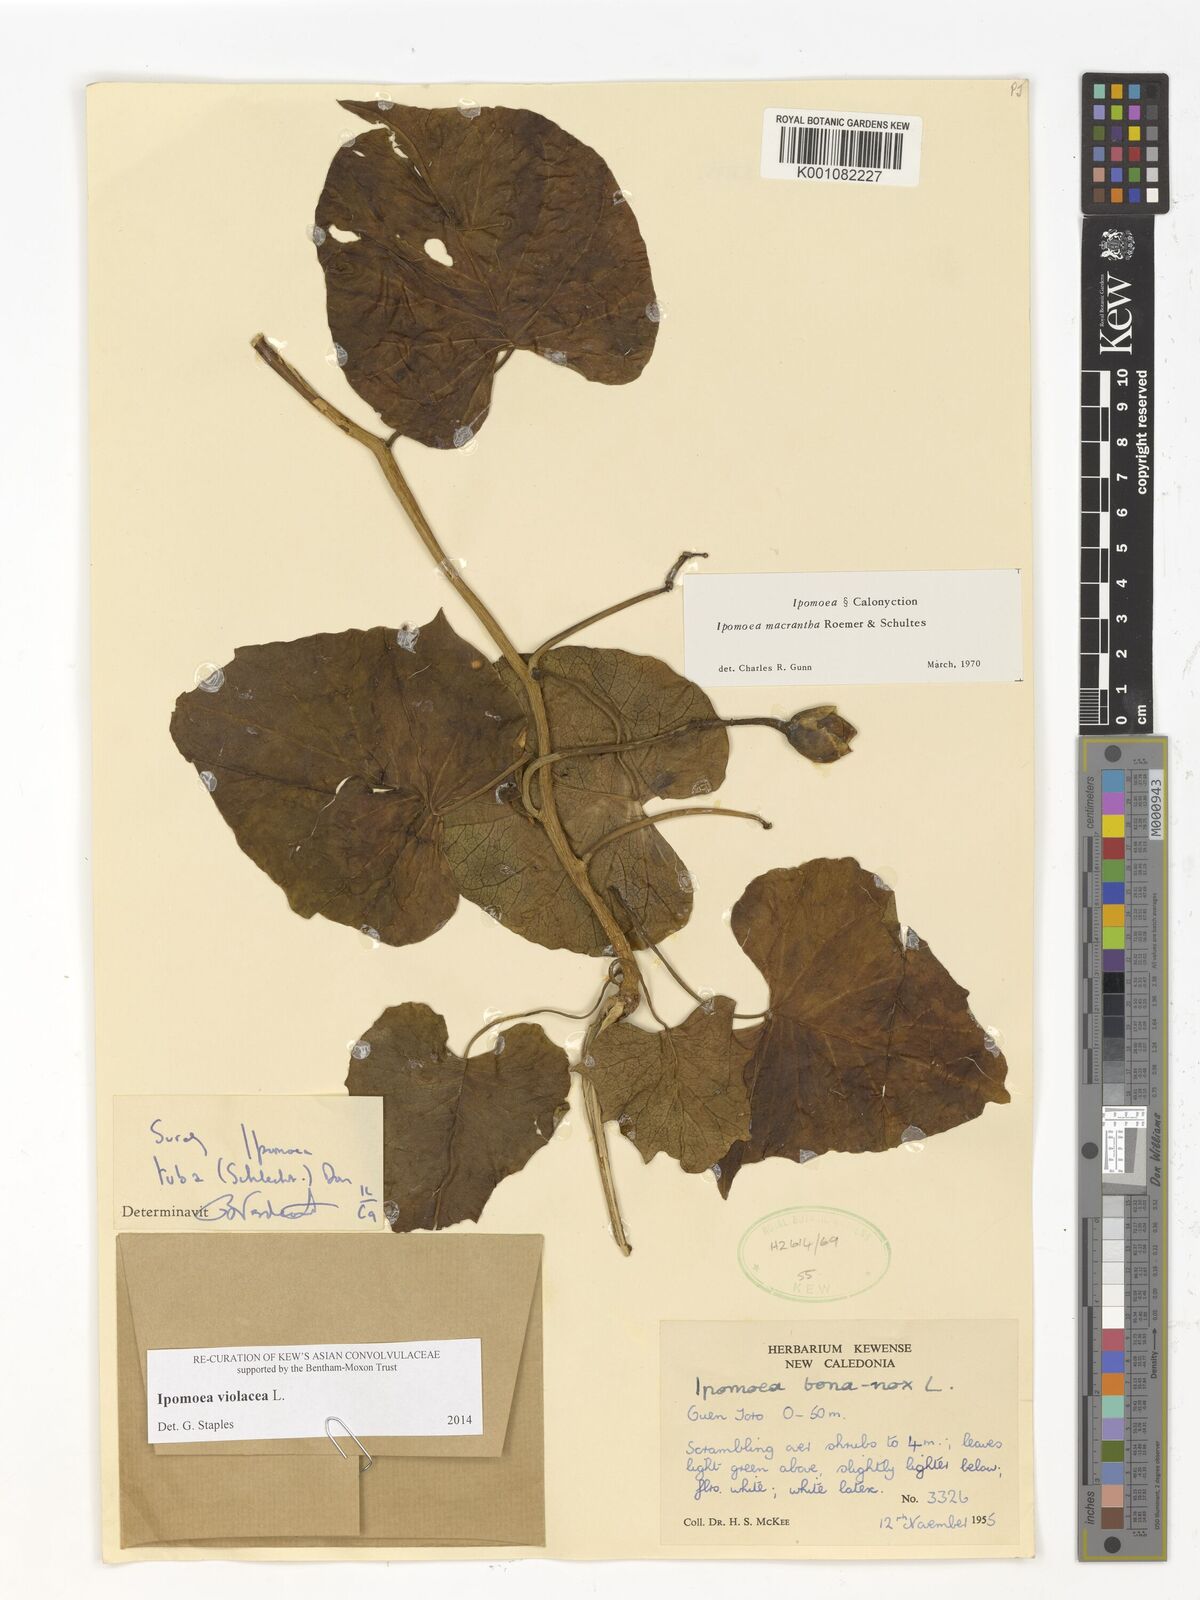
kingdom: Plantae
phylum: Tracheophyta
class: Magnoliopsida
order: Solanales
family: Convolvulaceae
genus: Ipomoea
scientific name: Ipomoea violacea
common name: Beach moonflower
